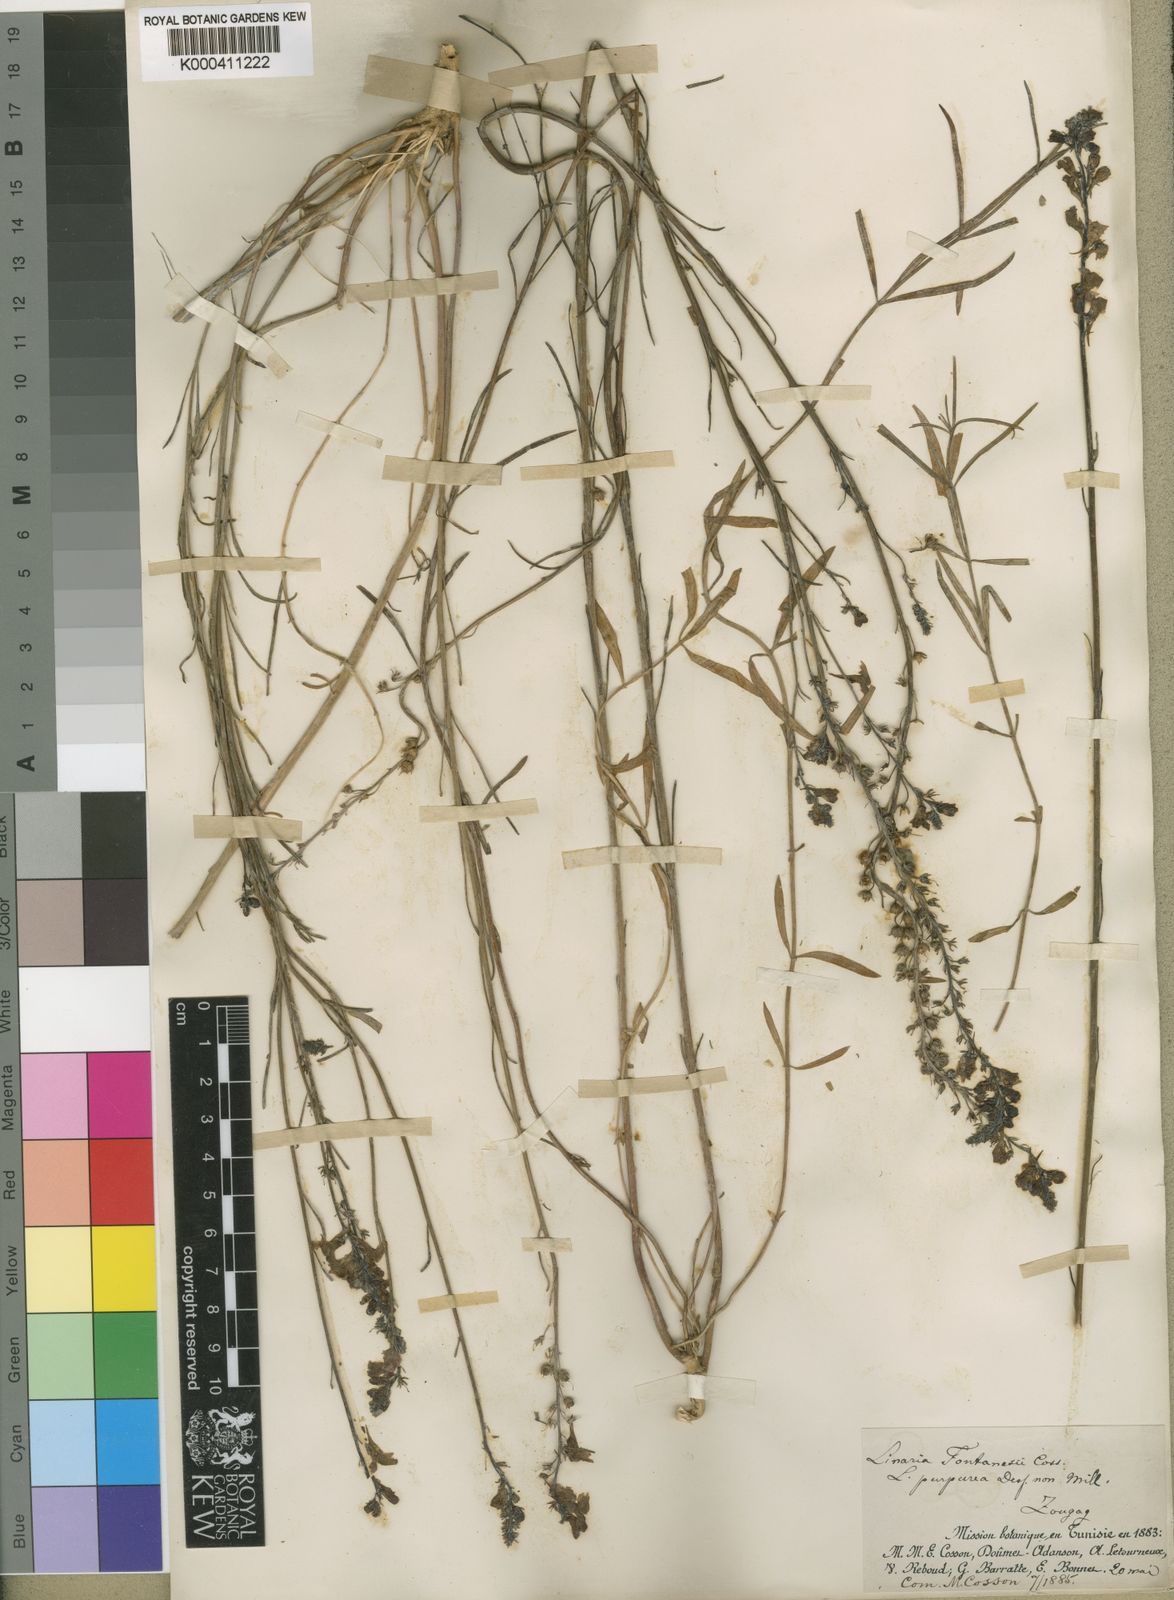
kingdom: Plantae
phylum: Tracheophyta
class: Magnoliopsida
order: Lamiales
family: Plantaginaceae
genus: Linaria
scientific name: Linaria multicaulis
